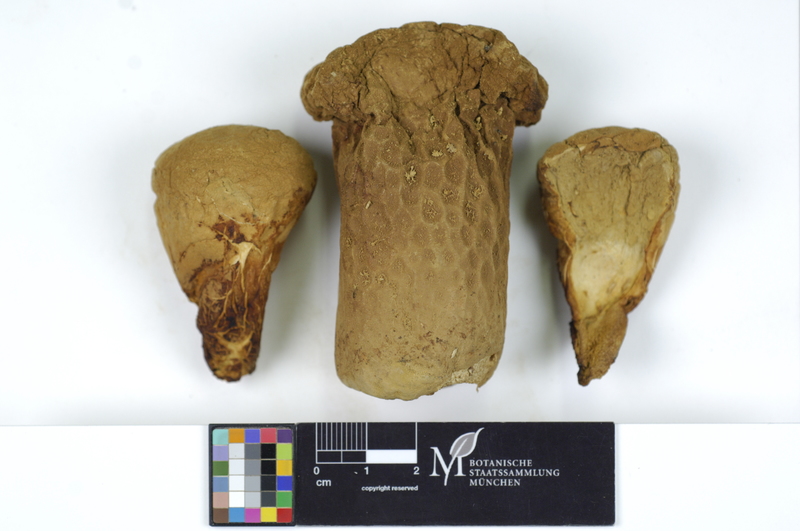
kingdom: Fungi
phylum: Basidiomycota
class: Agaricomycetes
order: Agaricales
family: Lycoperdaceae
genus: Lycoperdon
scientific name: Lycoperdon excipuliforme
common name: Pestle puffball
